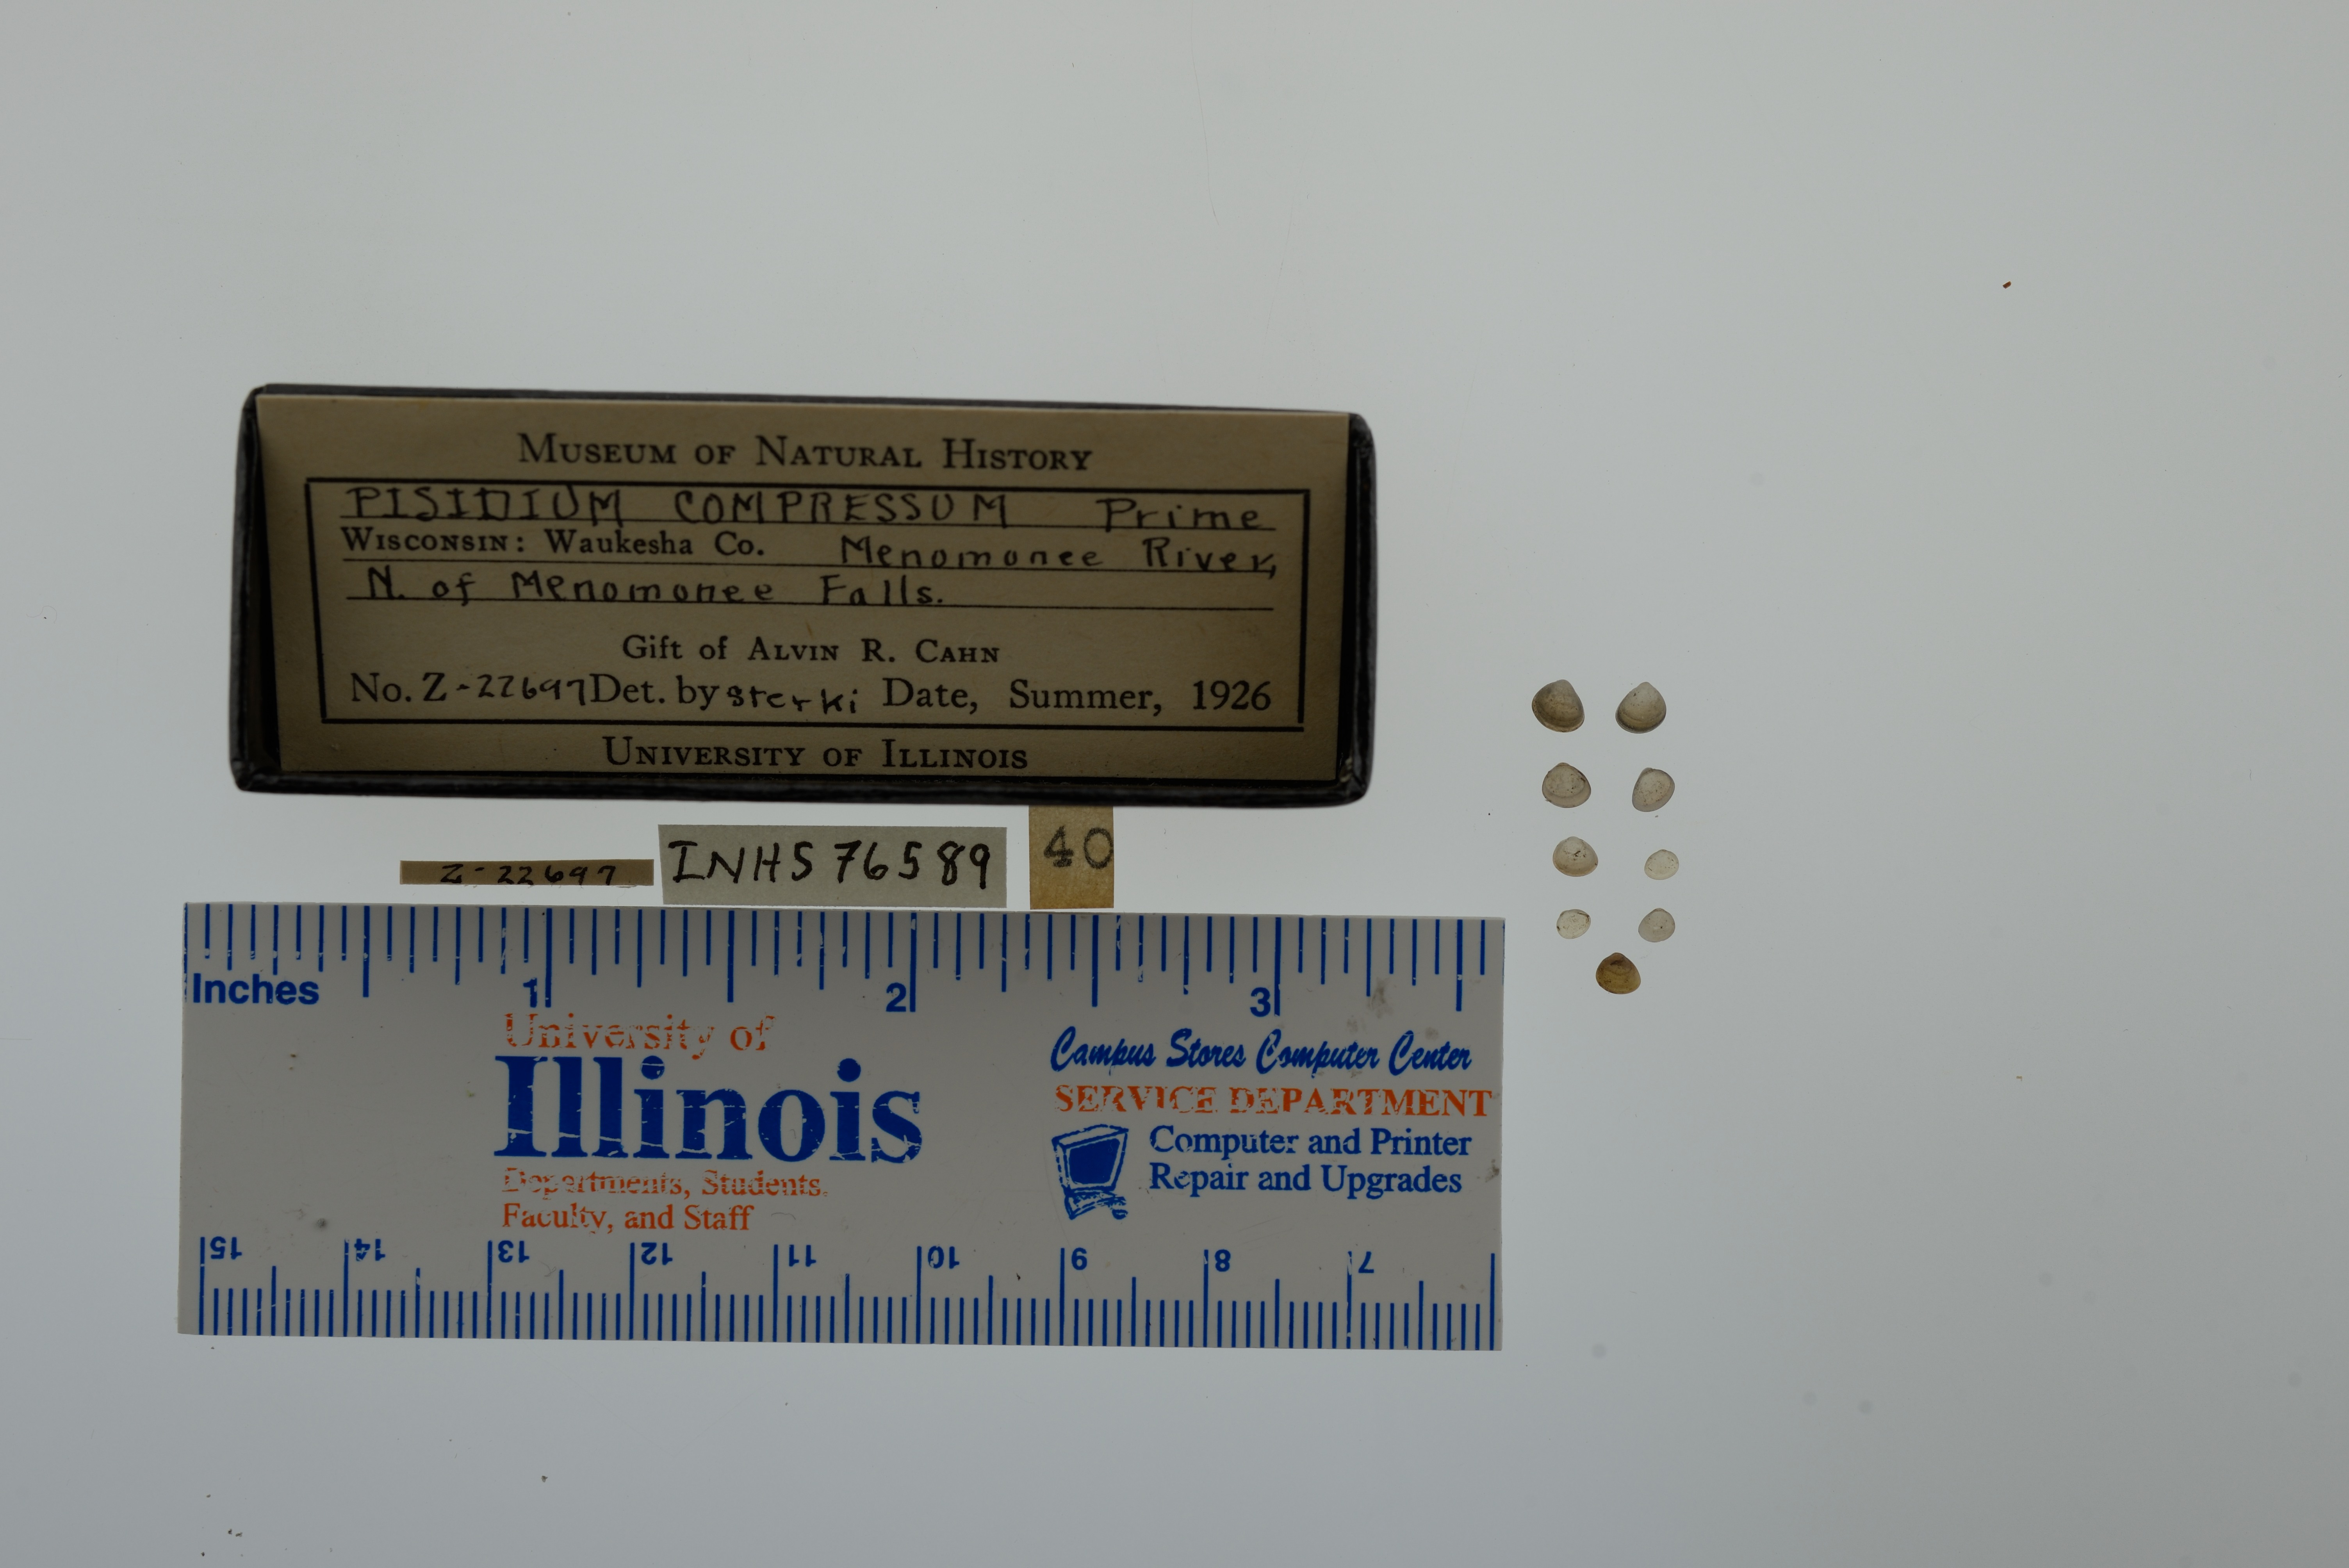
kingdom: Animalia
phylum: Mollusca
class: Bivalvia
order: Sphaeriida
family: Sphaeriidae
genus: Euglesa
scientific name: Euglesa compressa
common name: Ridgedbeak peaclam
